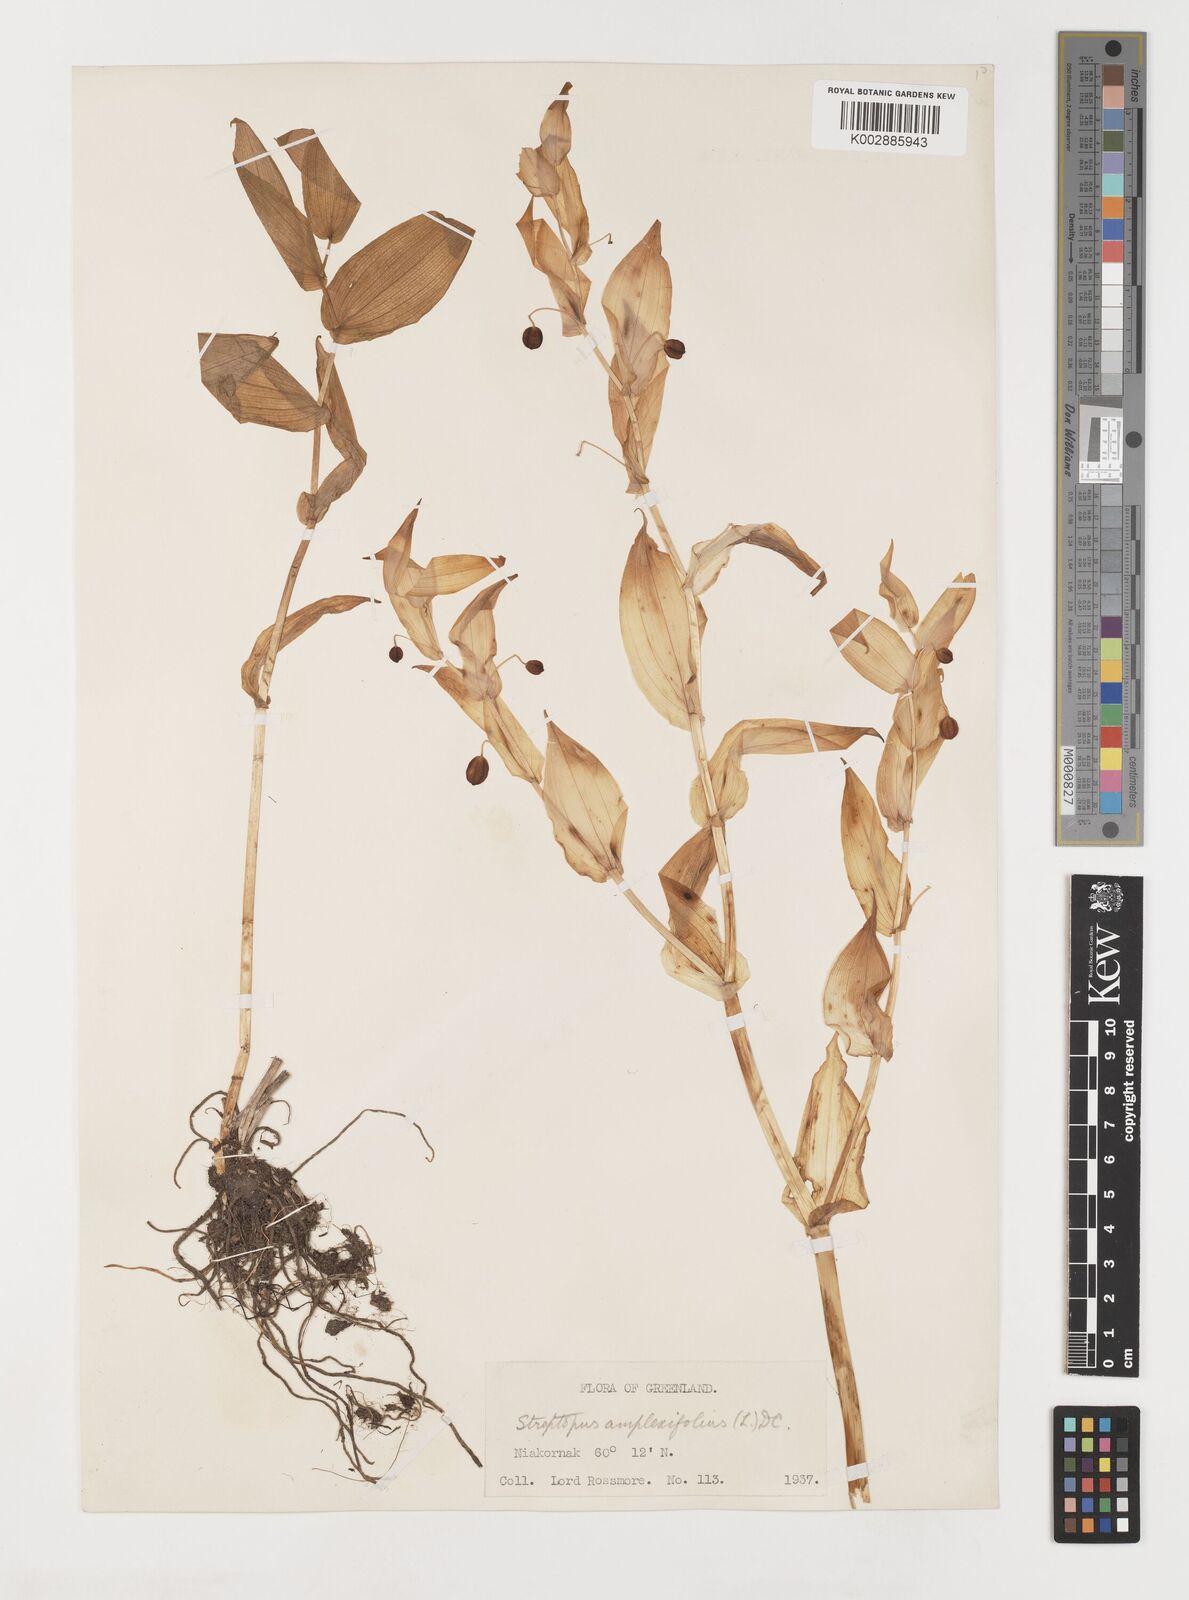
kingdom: Plantae
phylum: Tracheophyta
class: Liliopsida
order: Liliales
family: Liliaceae
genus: Streptopus
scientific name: Streptopus amplexifolius
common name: Clasp twisted stalk
